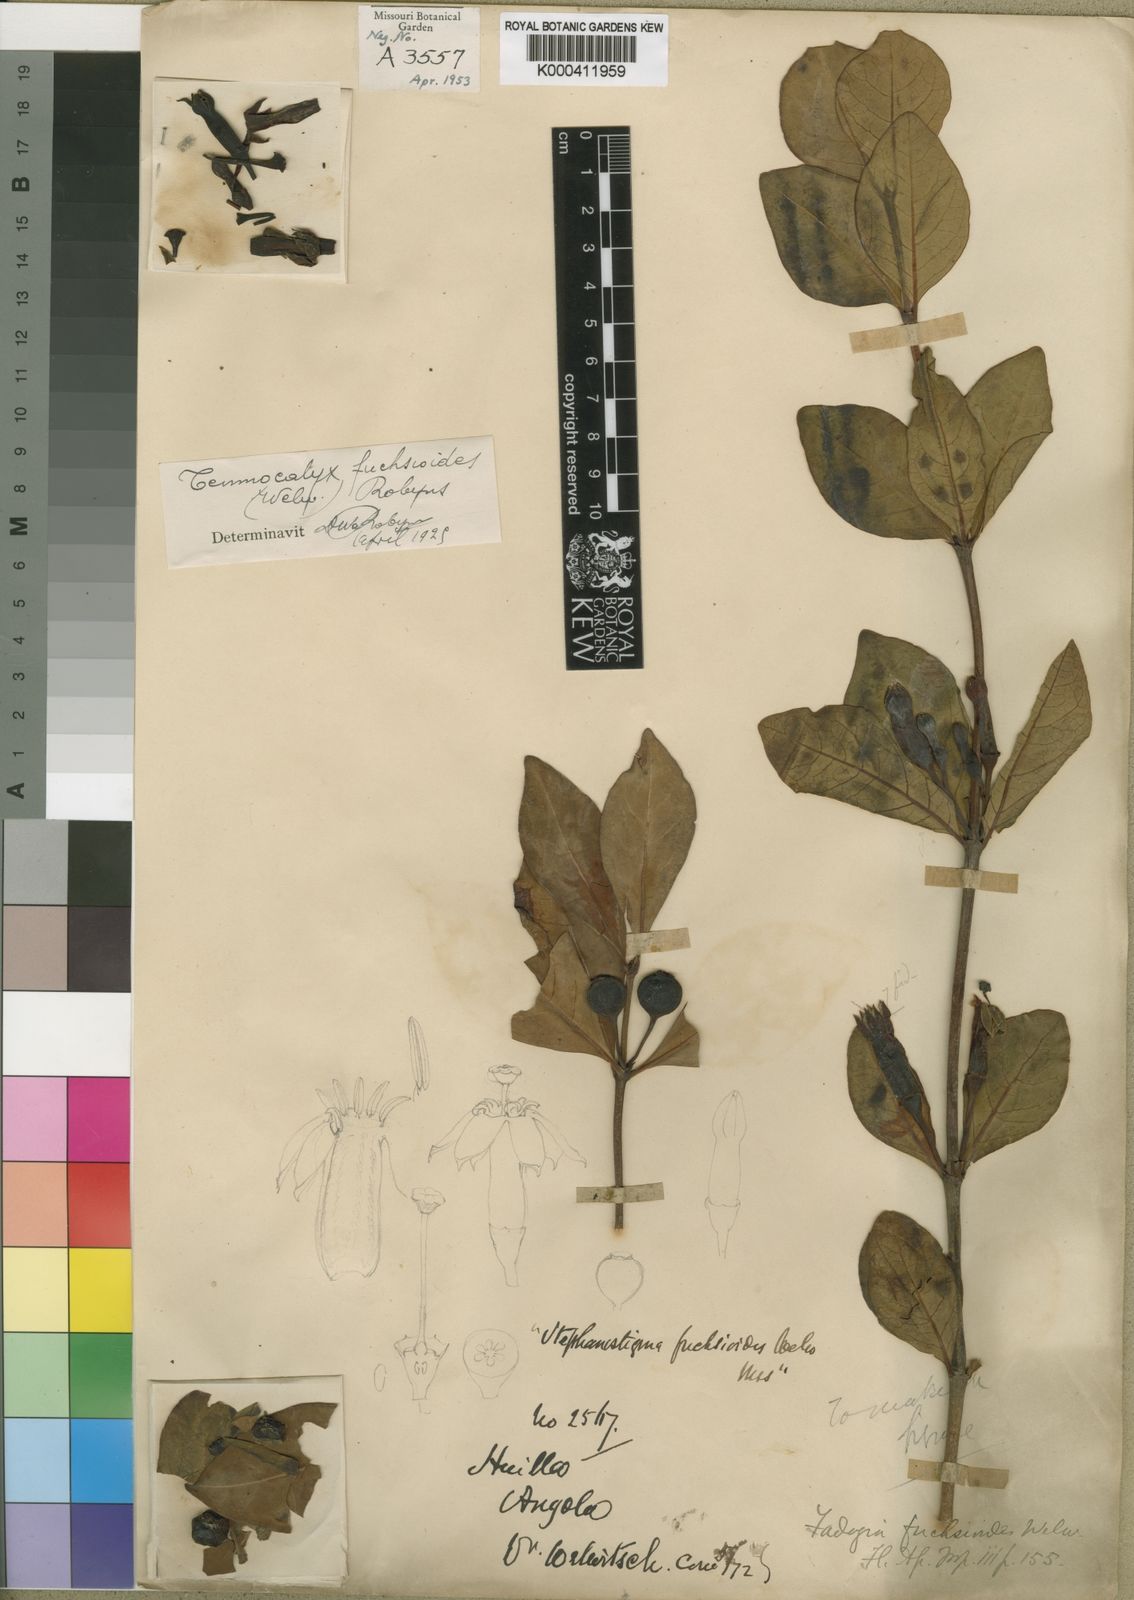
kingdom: Plantae
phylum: Tracheophyta
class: Magnoliopsida
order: Gentianales
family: Rubiaceae
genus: Fadogia
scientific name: Fadogia fuchsioides
